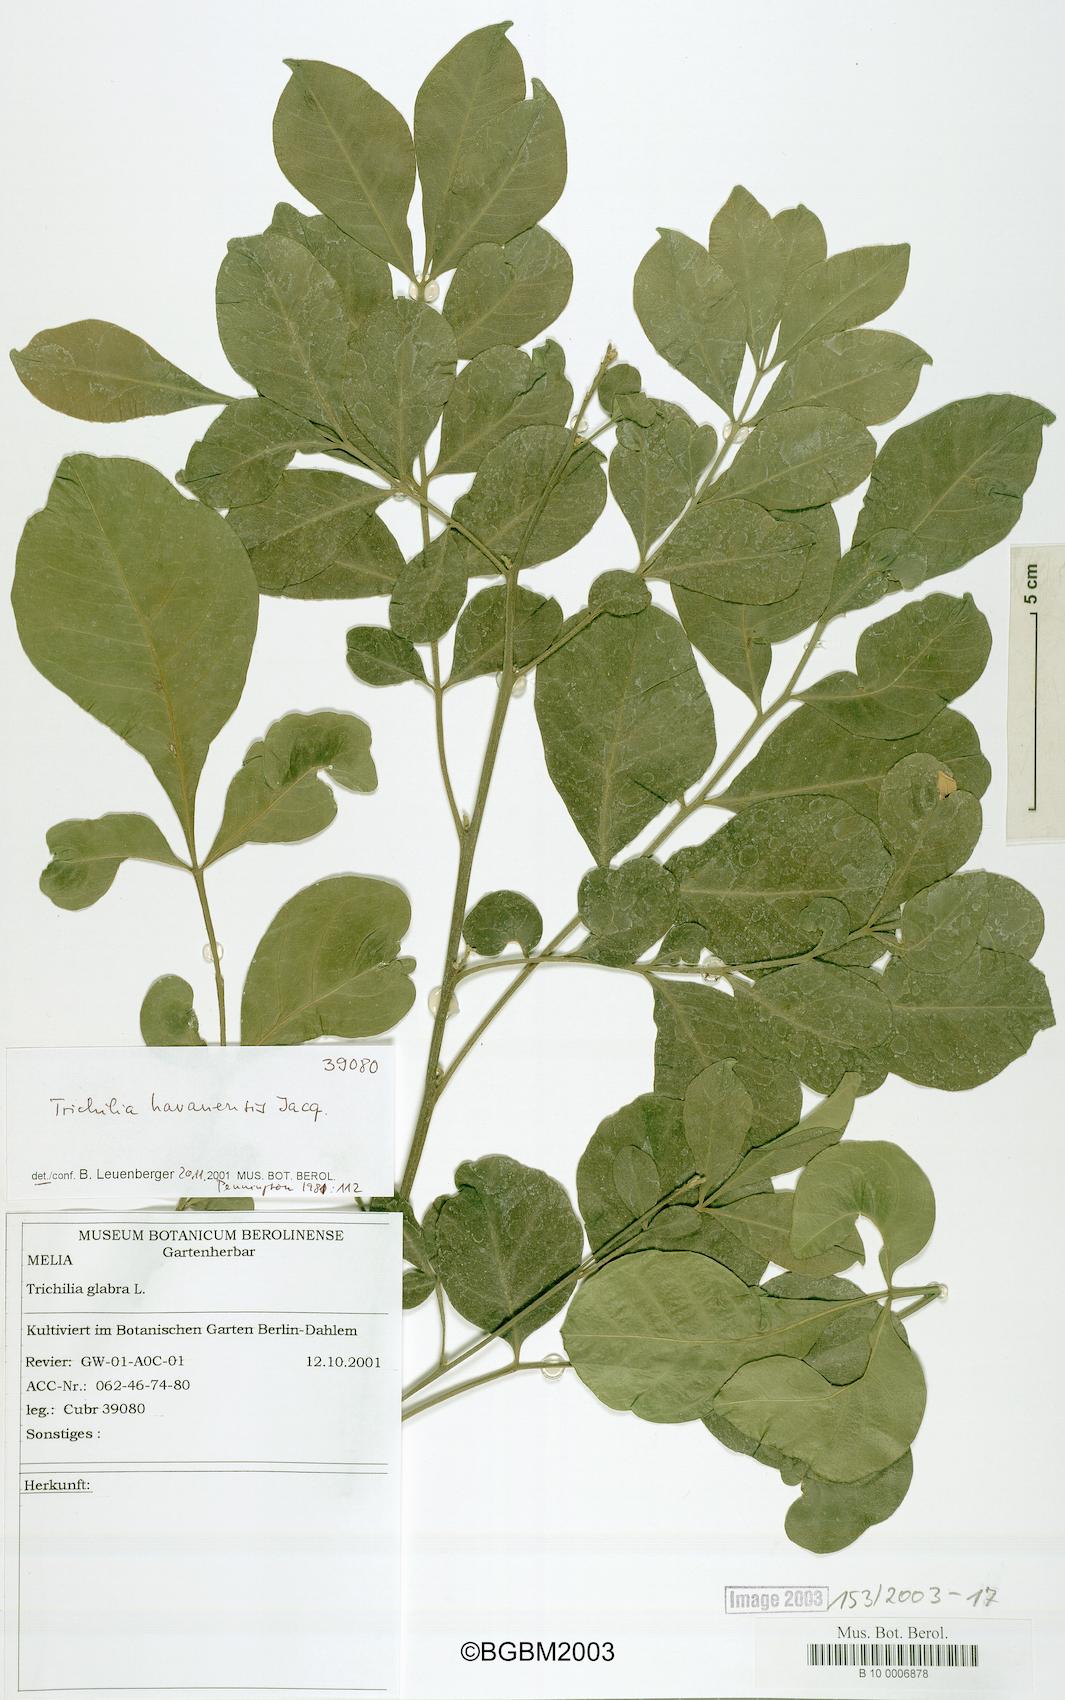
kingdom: Plantae
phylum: Tracheophyta
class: Magnoliopsida
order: Sapindales
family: Meliaceae
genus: Trichilia
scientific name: Trichilia havanensis
